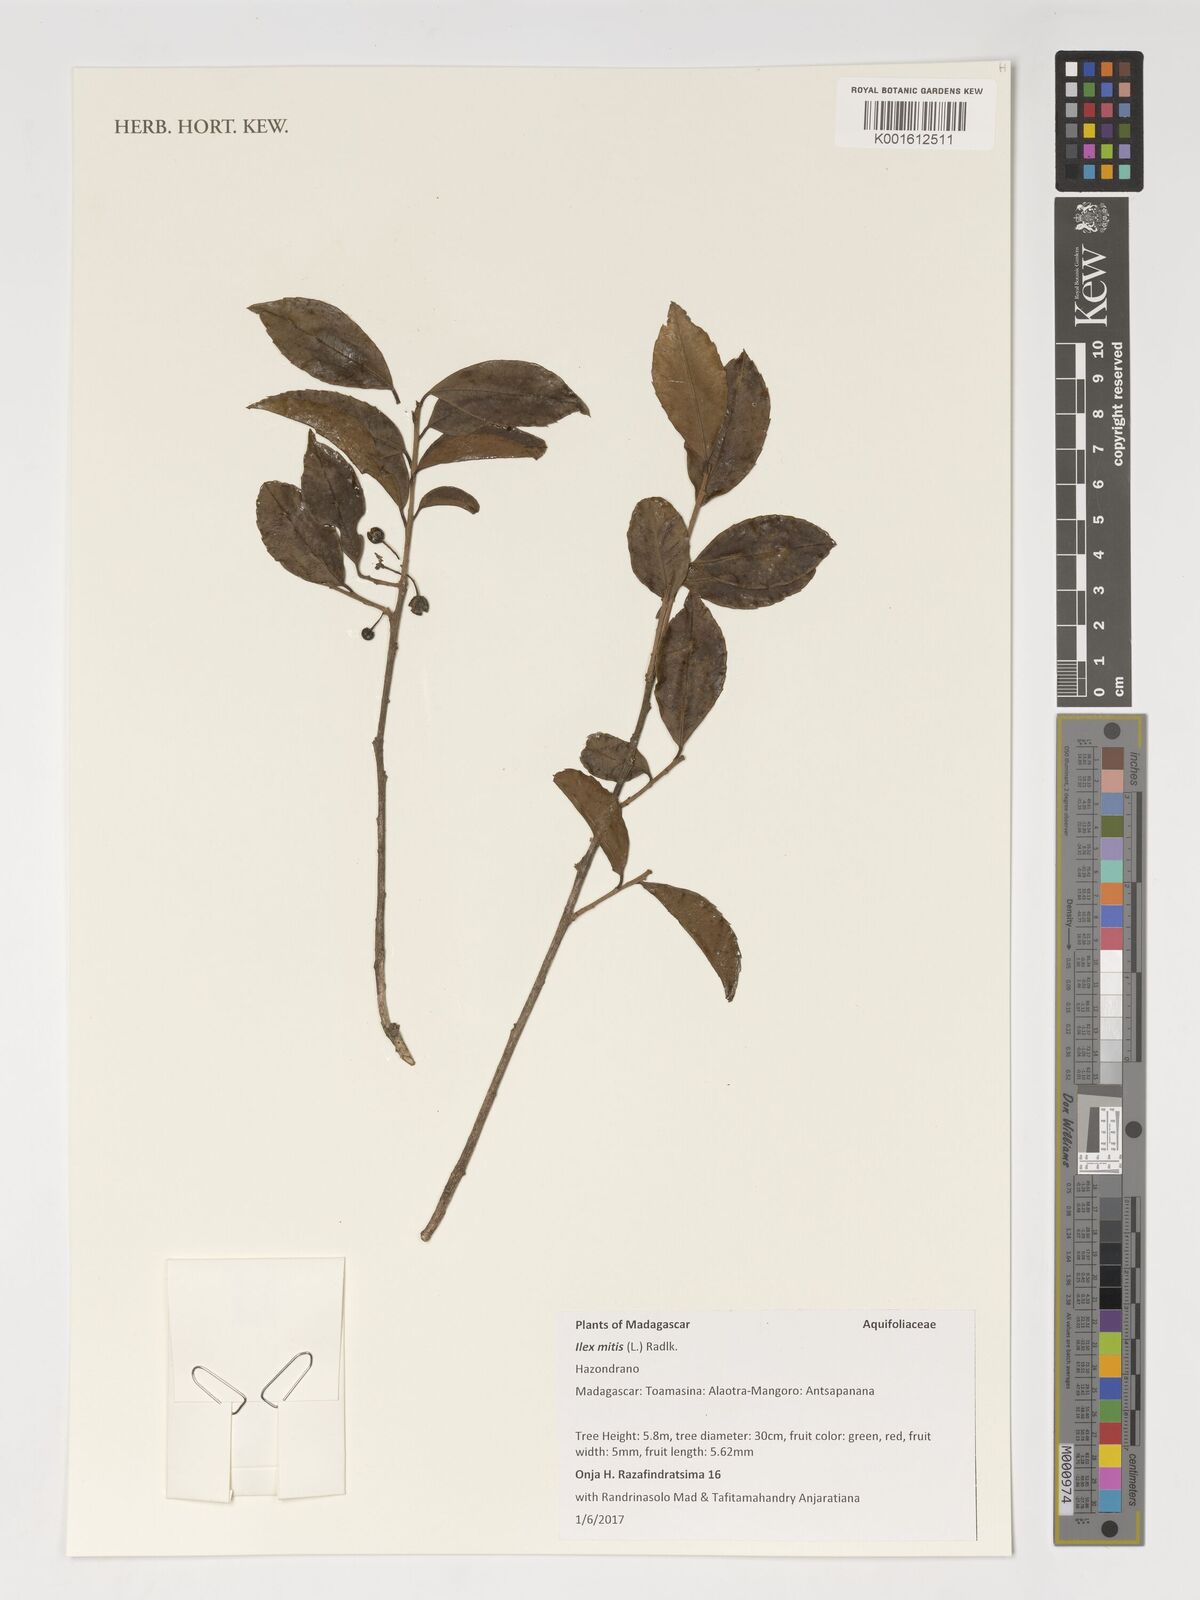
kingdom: Plantae
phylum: Tracheophyta
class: Magnoliopsida
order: Aquifoliales
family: Aquifoliaceae
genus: Ilex
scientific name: Ilex mitis
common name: African holly
